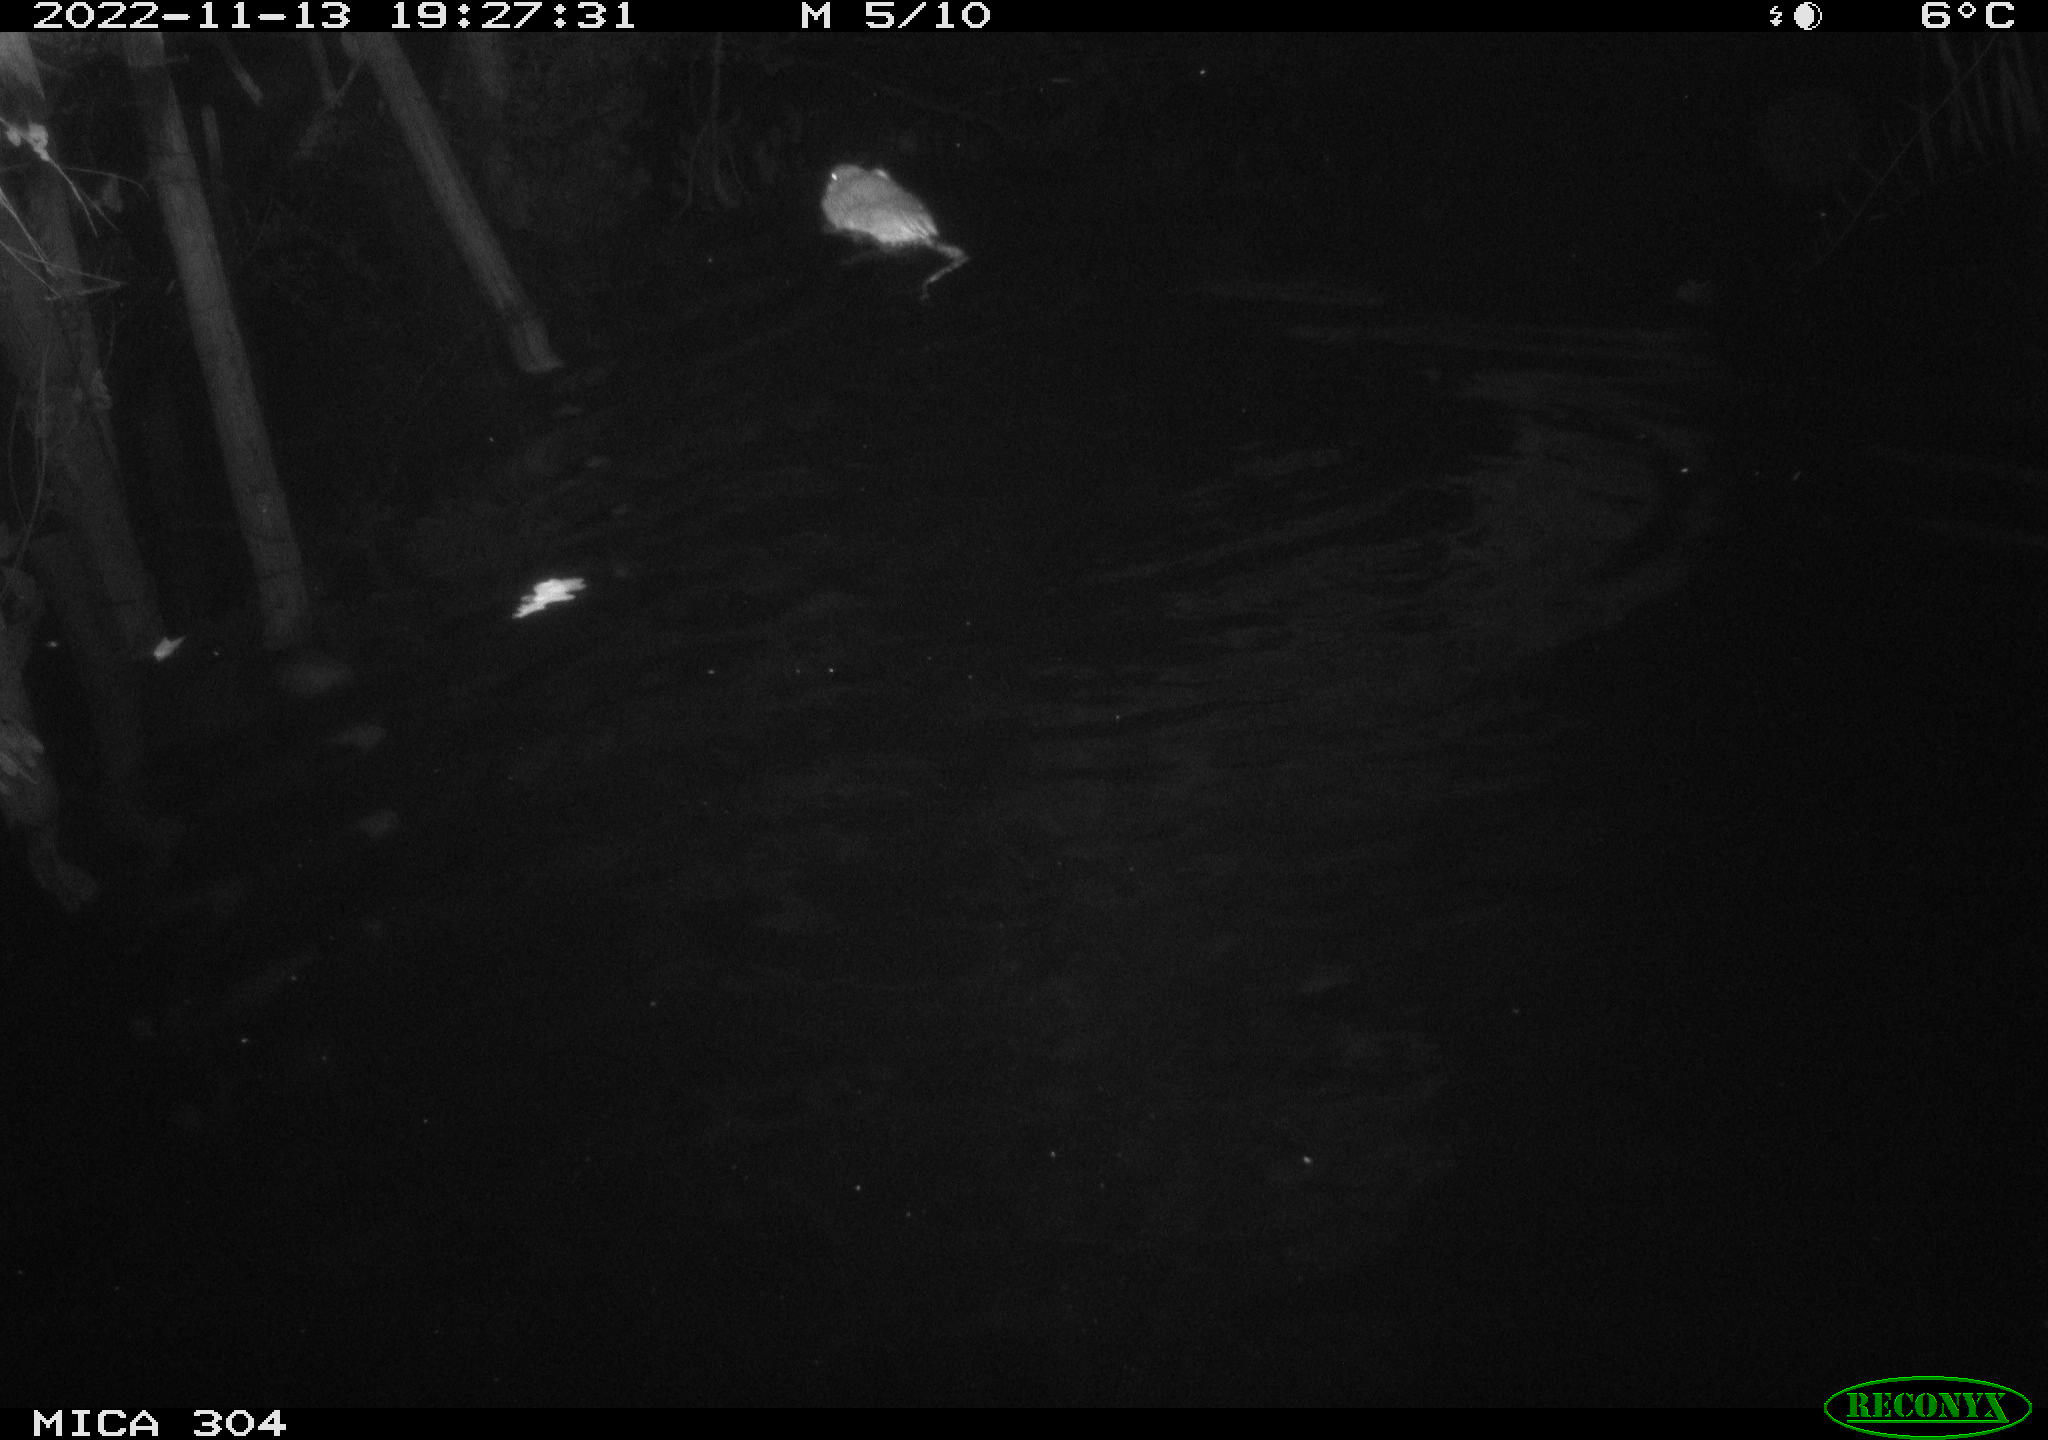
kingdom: Animalia
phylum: Chordata
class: Mammalia
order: Rodentia
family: Cricetidae
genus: Ondatra
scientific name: Ondatra zibethicus
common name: Muskrat
